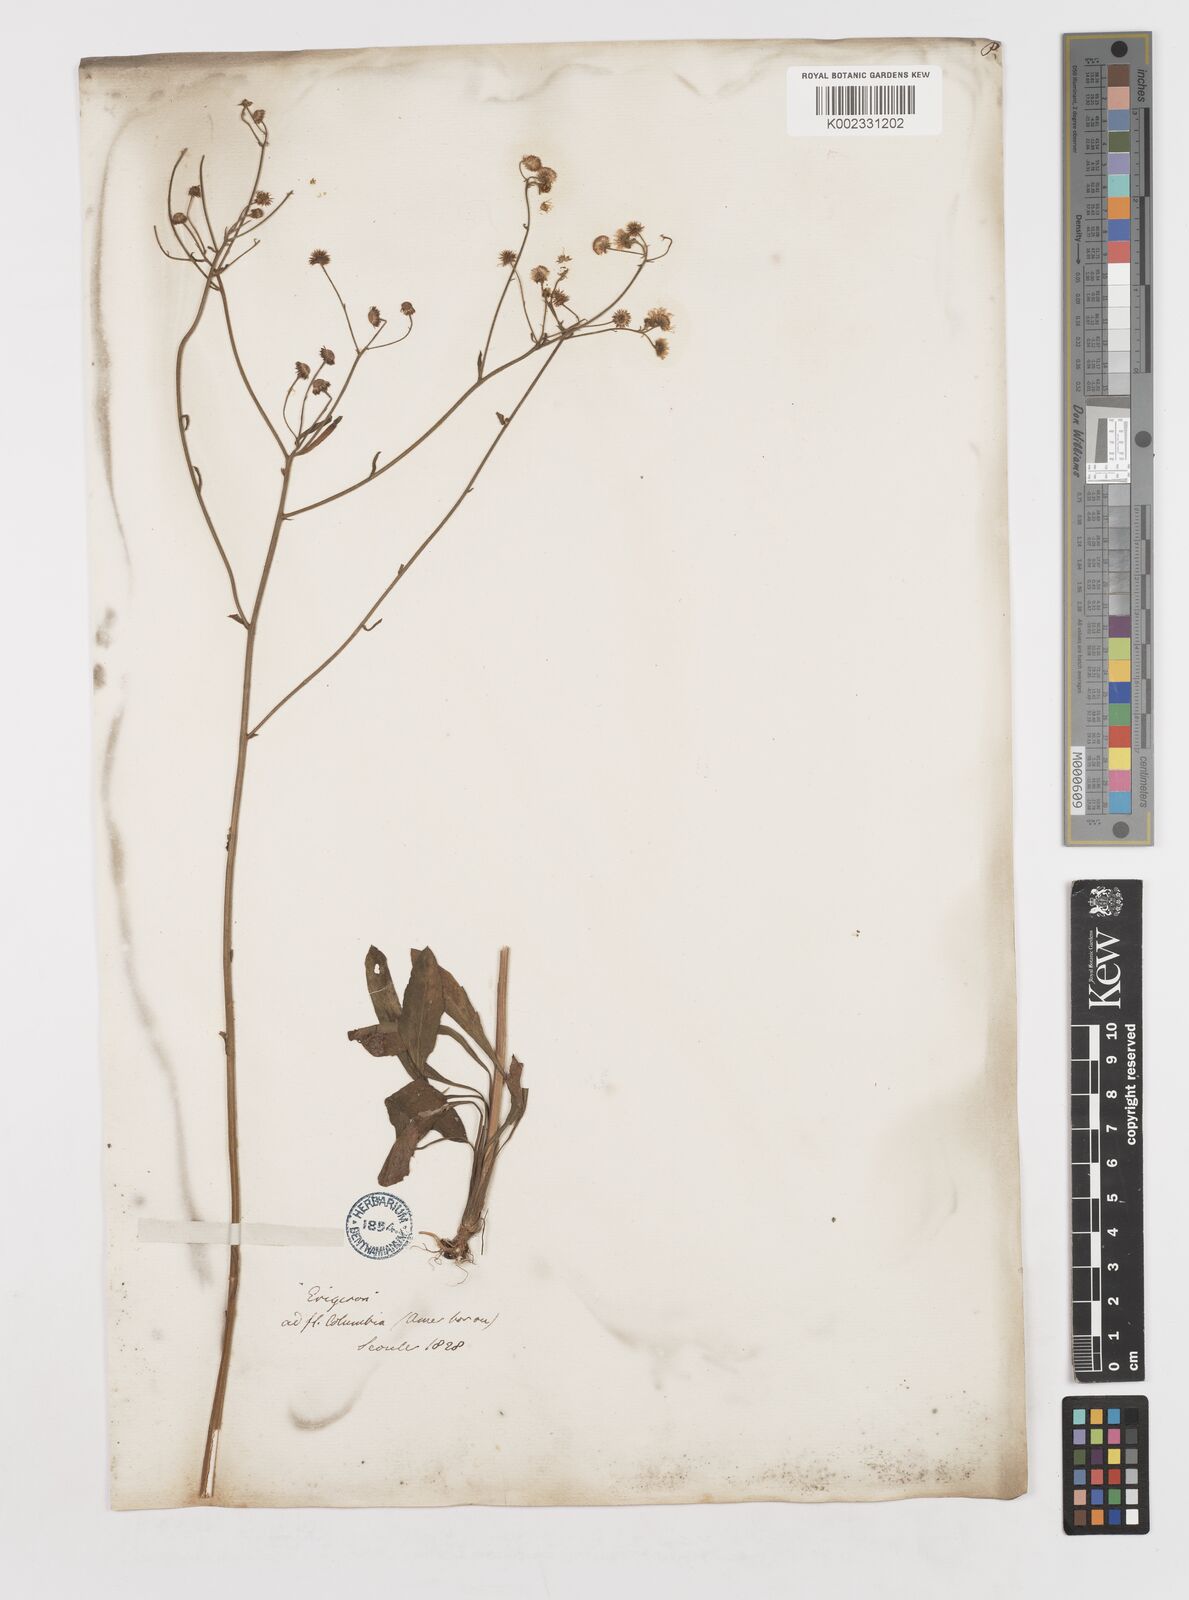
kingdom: Plantae
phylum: Tracheophyta
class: Magnoliopsida
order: Asterales
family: Asteraceae
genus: Erigeron
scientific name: Erigeron strigosus
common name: Common eastern fleabane
